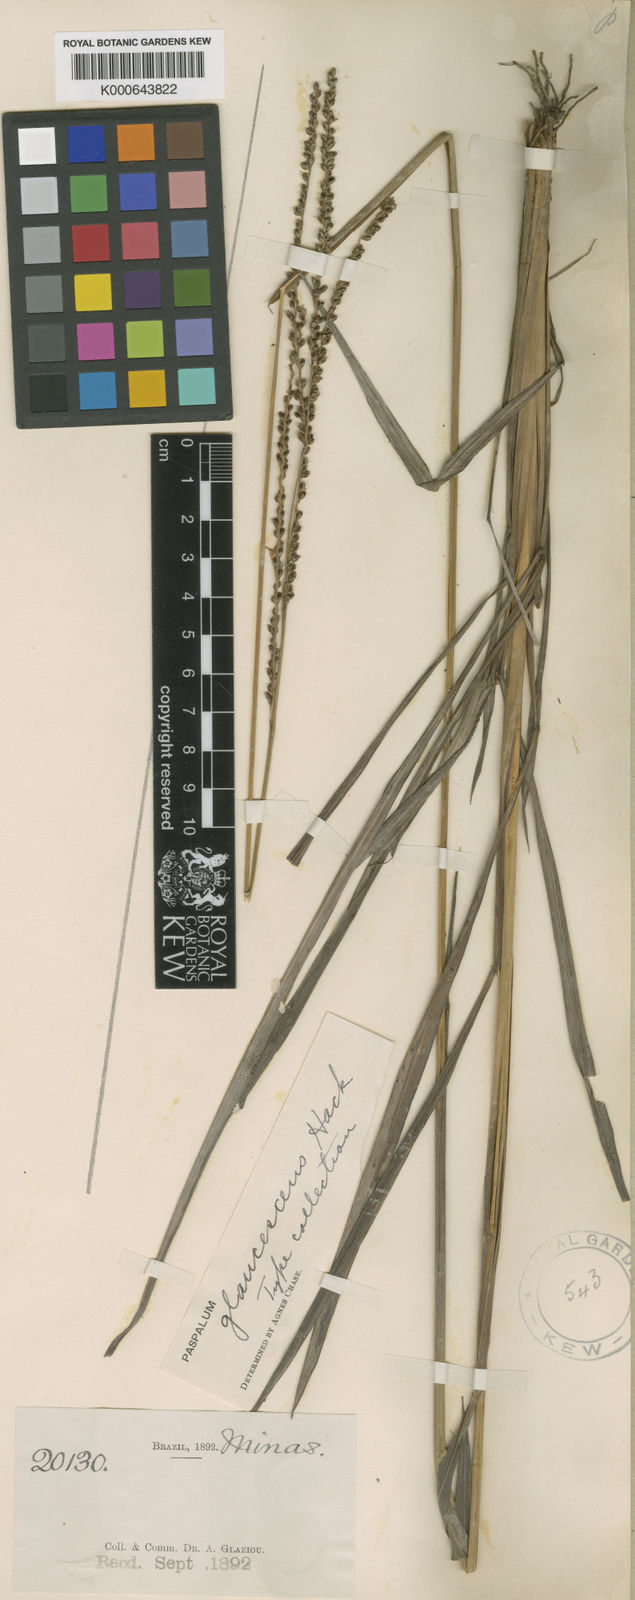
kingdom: Plantae
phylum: Tracheophyta
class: Liliopsida
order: Poales
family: Poaceae
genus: Paspalum
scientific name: Paspalum glaucescens
